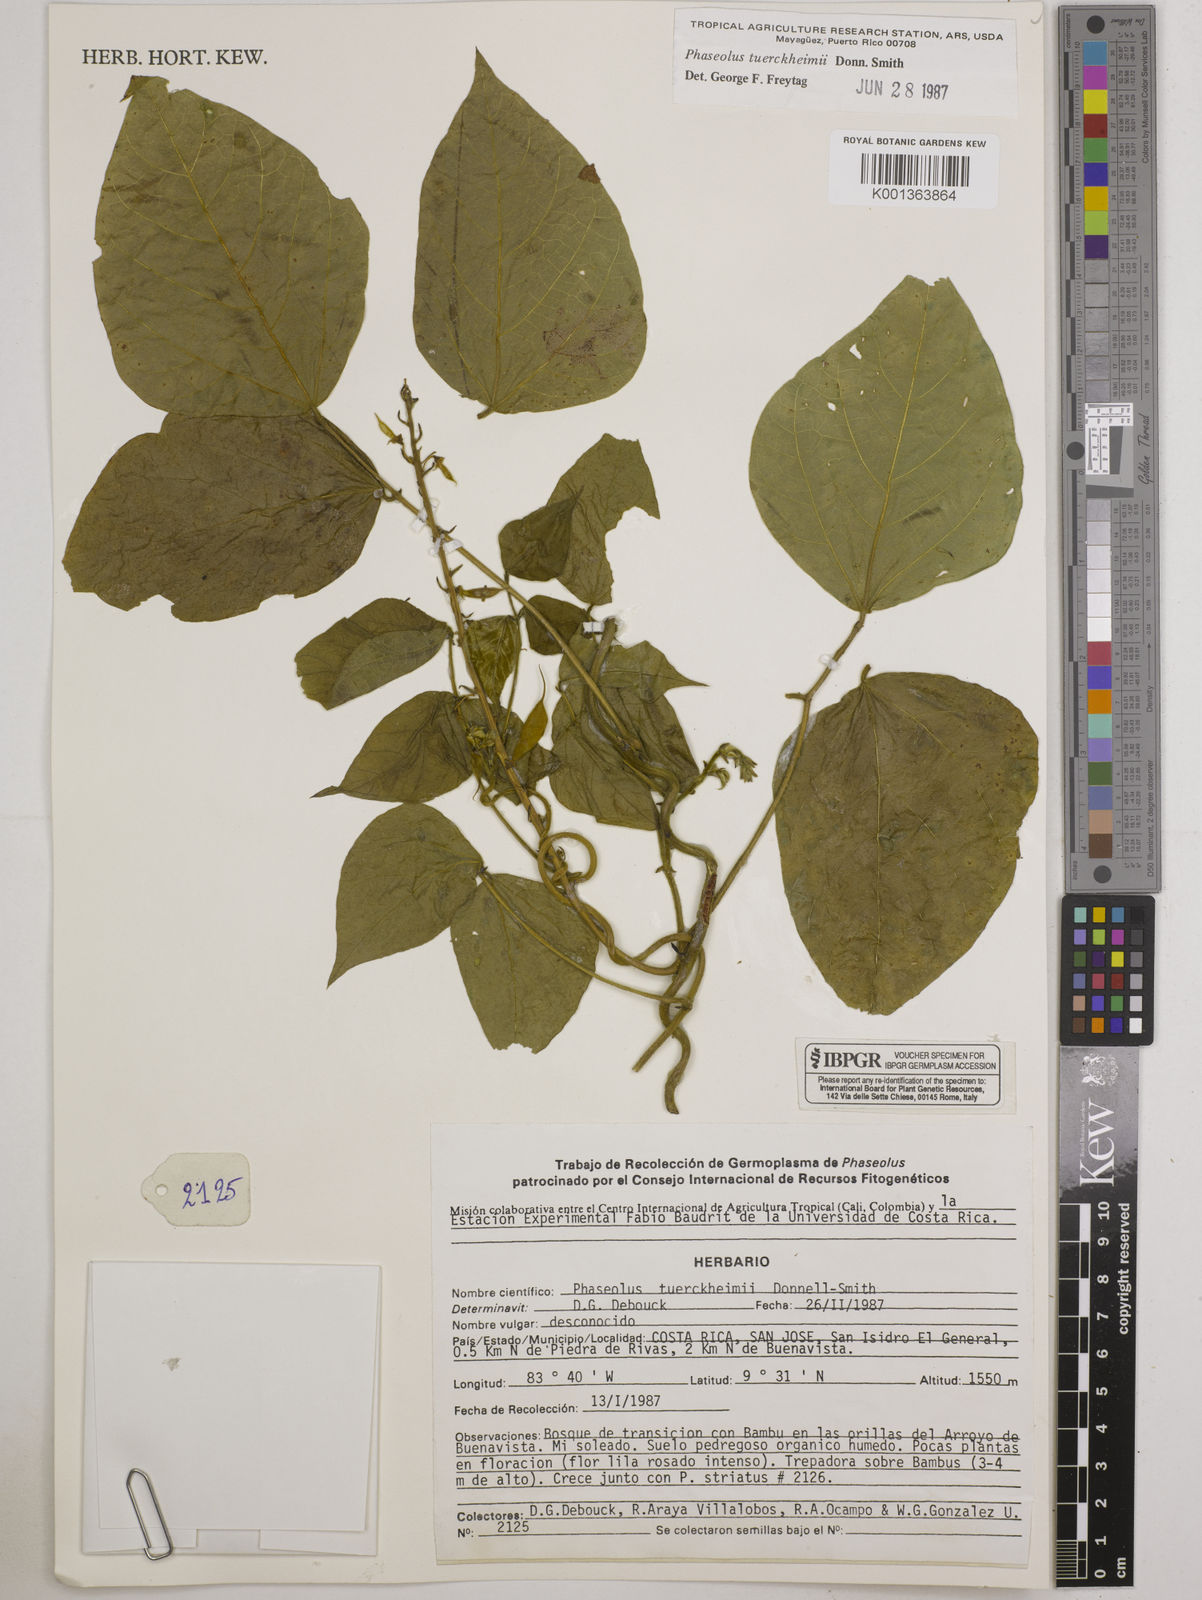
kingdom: Plantae
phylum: Tracheophyta
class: Magnoliopsida
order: Fabales
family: Fabaceae
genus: Phaseolus
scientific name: Phaseolus tuerckheimii
